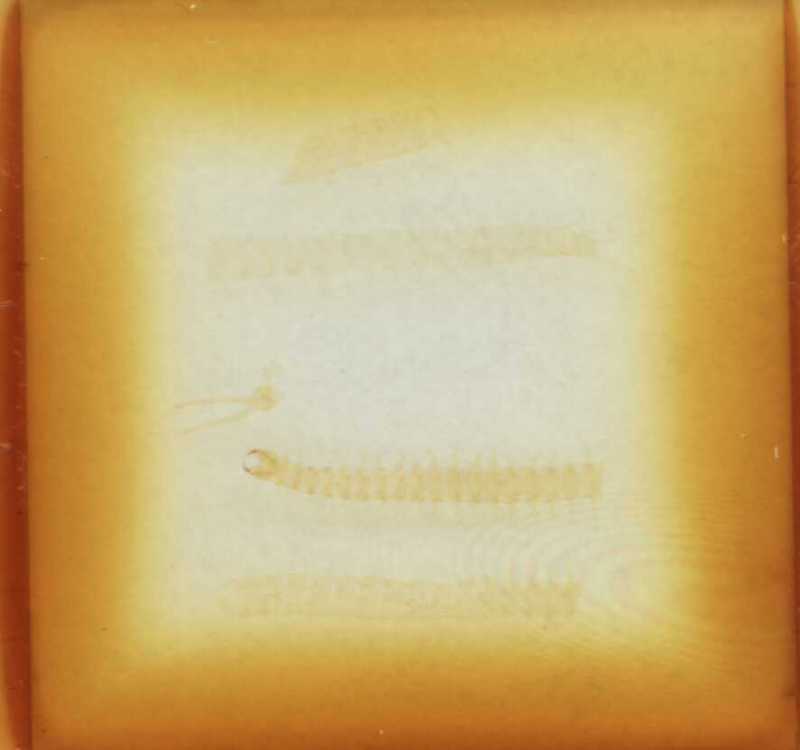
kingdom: Animalia
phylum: Arthropoda
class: Chilopoda
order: Geophilomorpha
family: Geophilidae
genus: Stenotaenia
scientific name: Stenotaenia sorrentina
